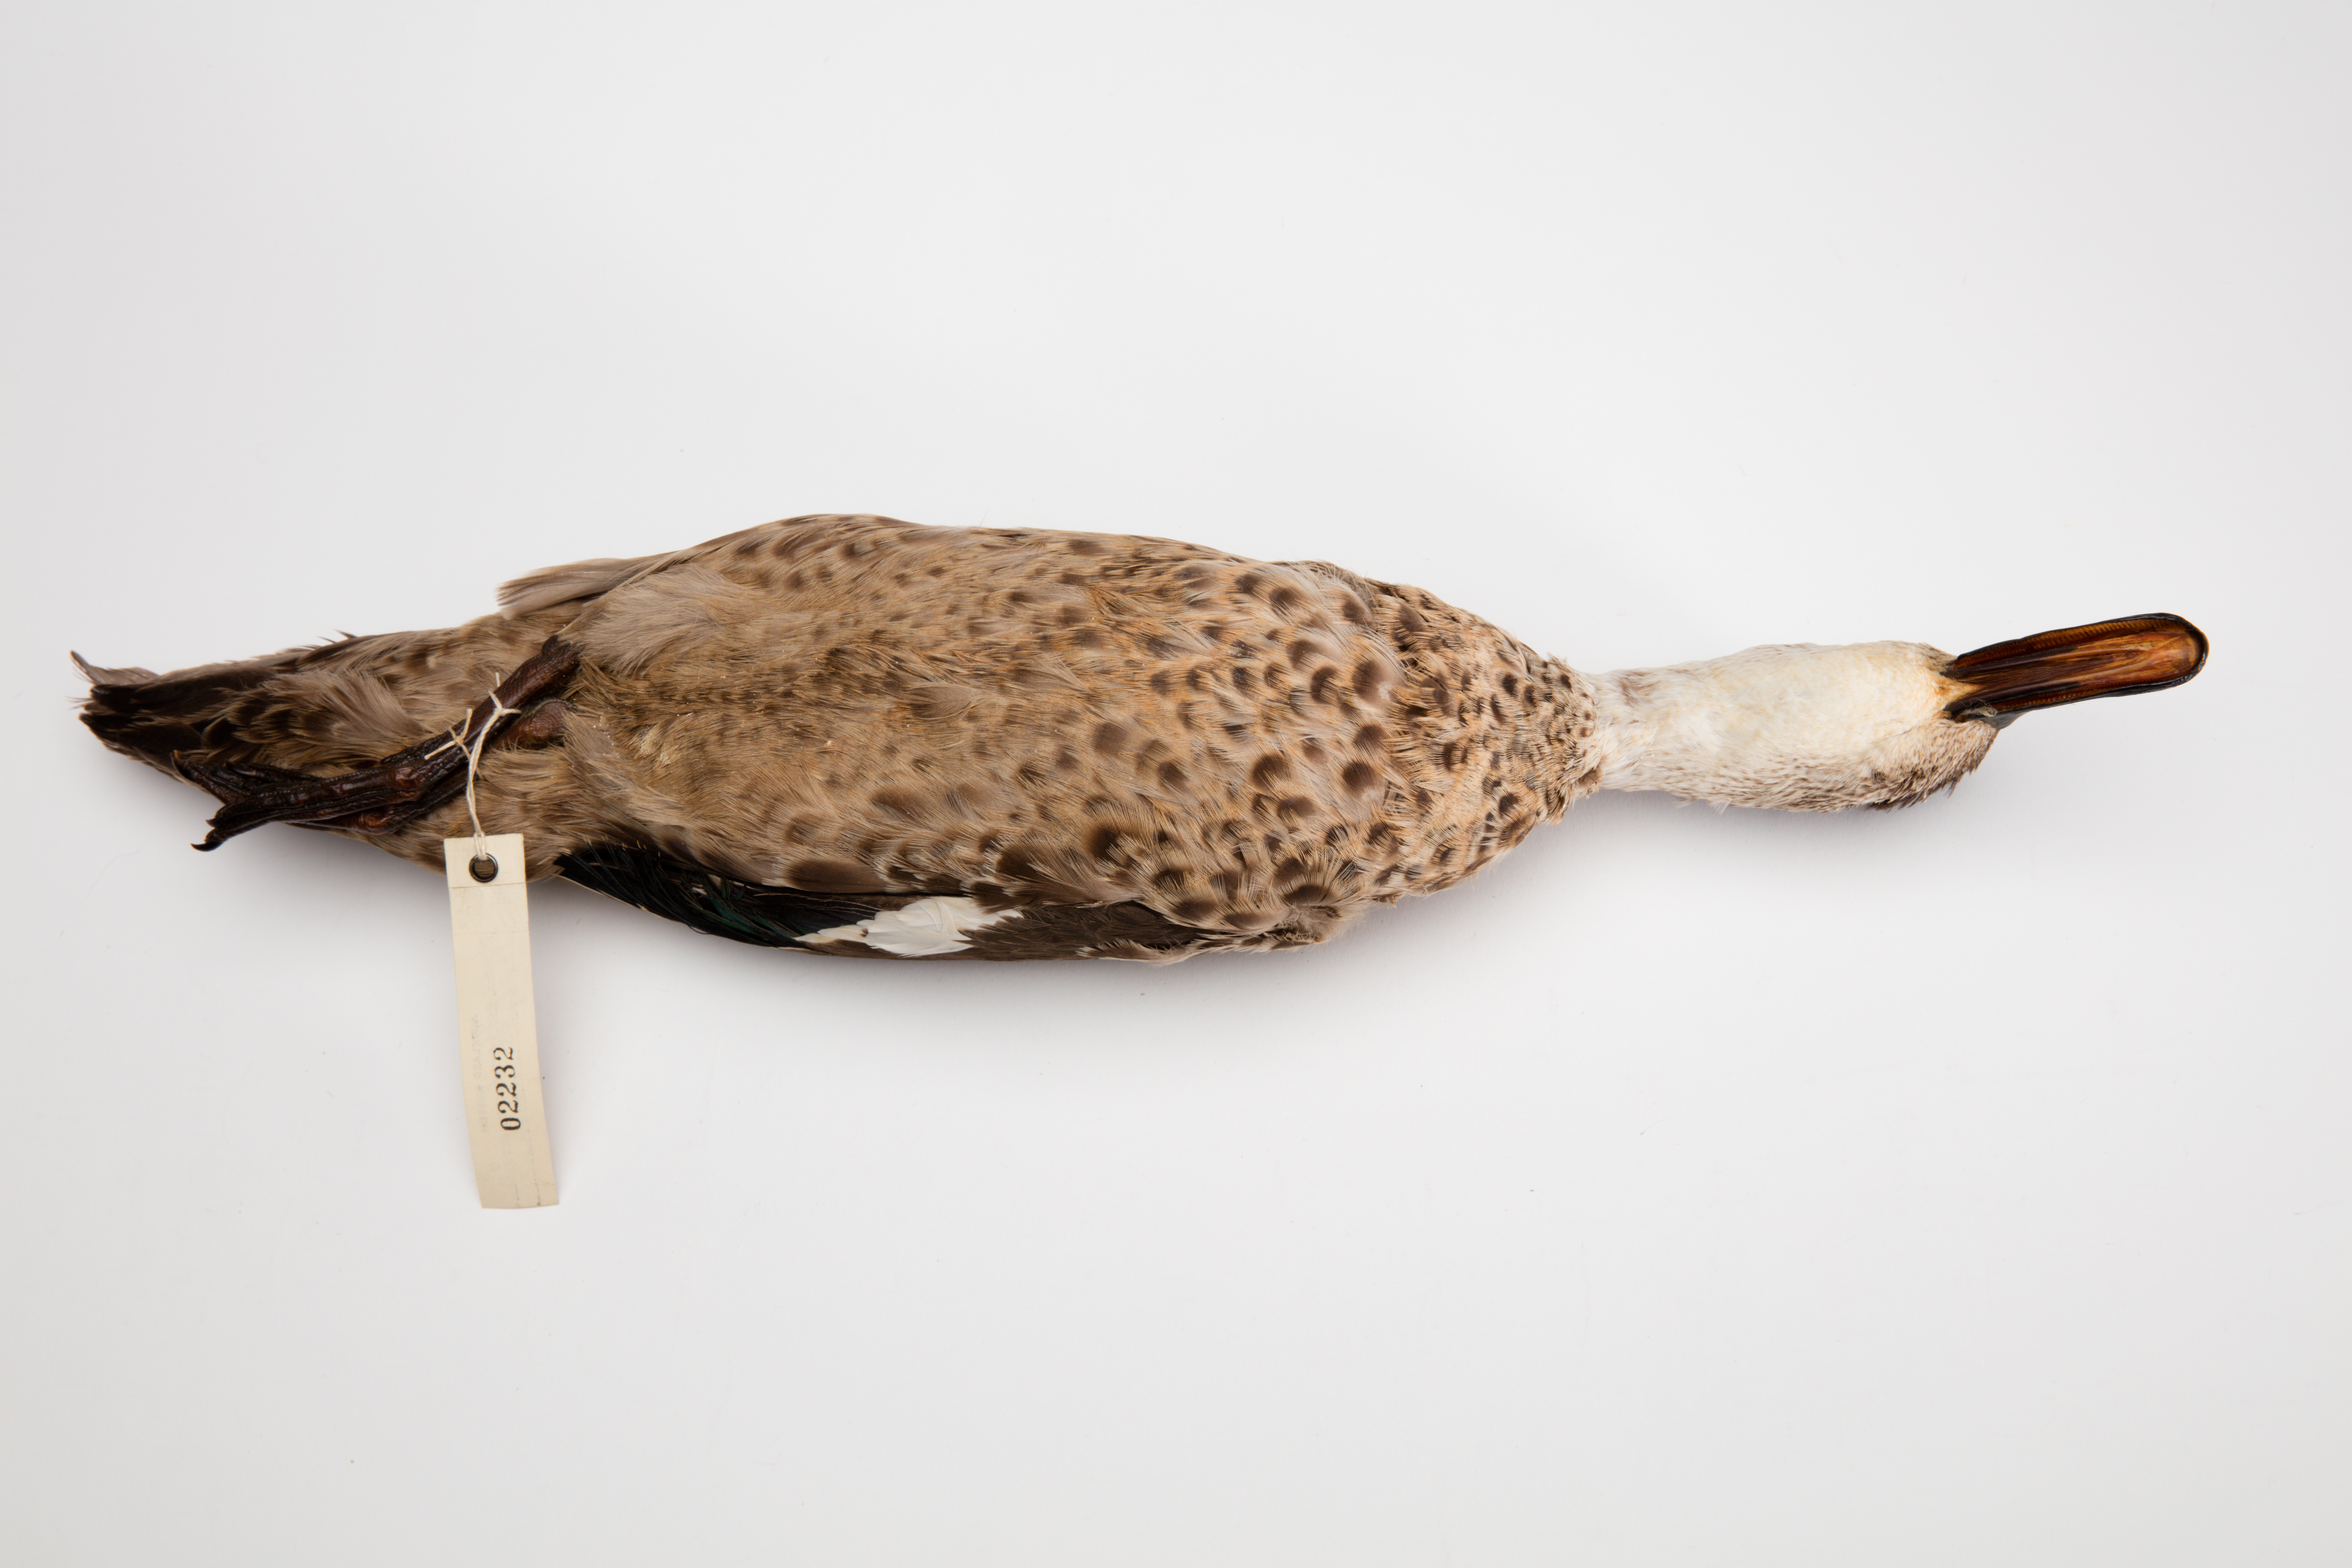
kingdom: Animalia
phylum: Chordata
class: Aves
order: Anseriformes
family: Anatidae
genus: Anas
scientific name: Anas gracilis
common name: Grey teal
